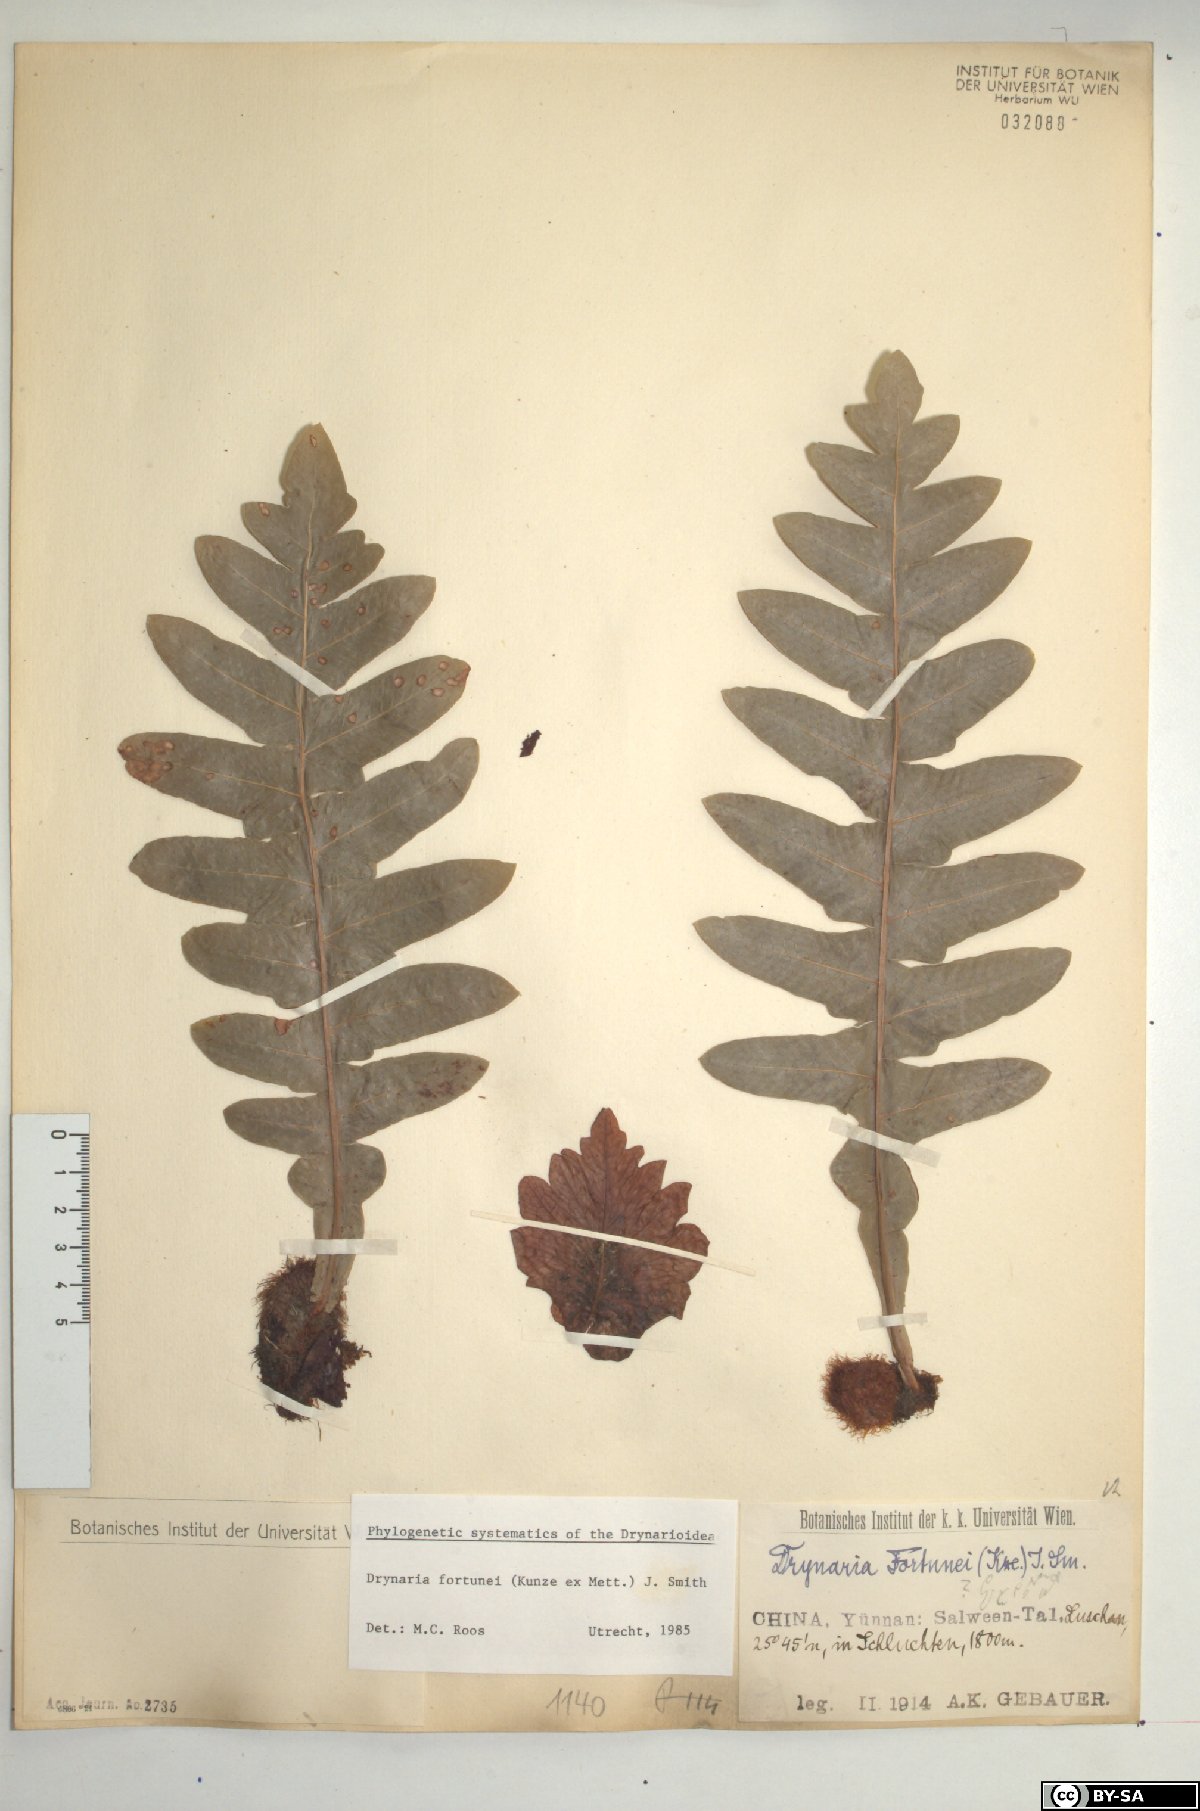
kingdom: Plantae
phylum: Tracheophyta
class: Polypodiopsida
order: Polypodiales
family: Polypodiaceae
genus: Drynaria
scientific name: Drynaria roosii
